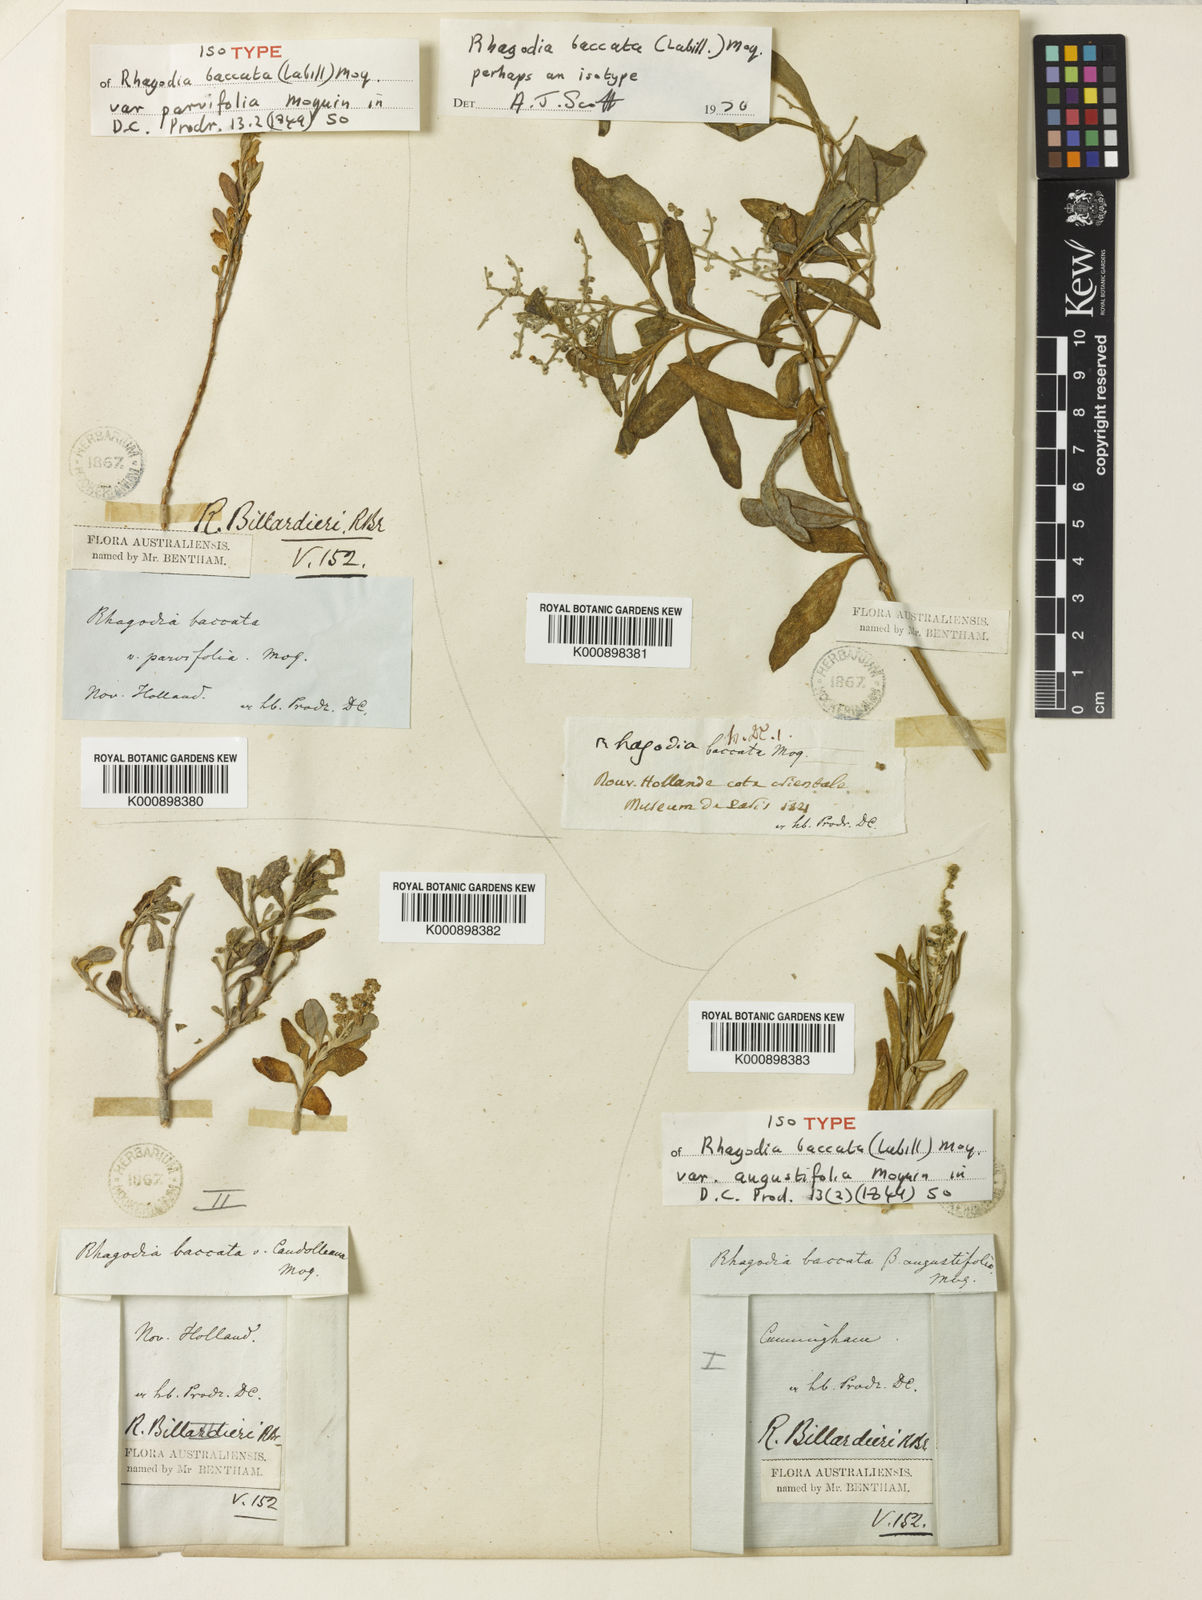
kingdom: Plantae
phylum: Tracheophyta
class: Magnoliopsida
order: Caryophyllales
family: Amaranthaceae
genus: Chenopodium
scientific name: Chenopodium baccatum
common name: Coastal-saltbush
